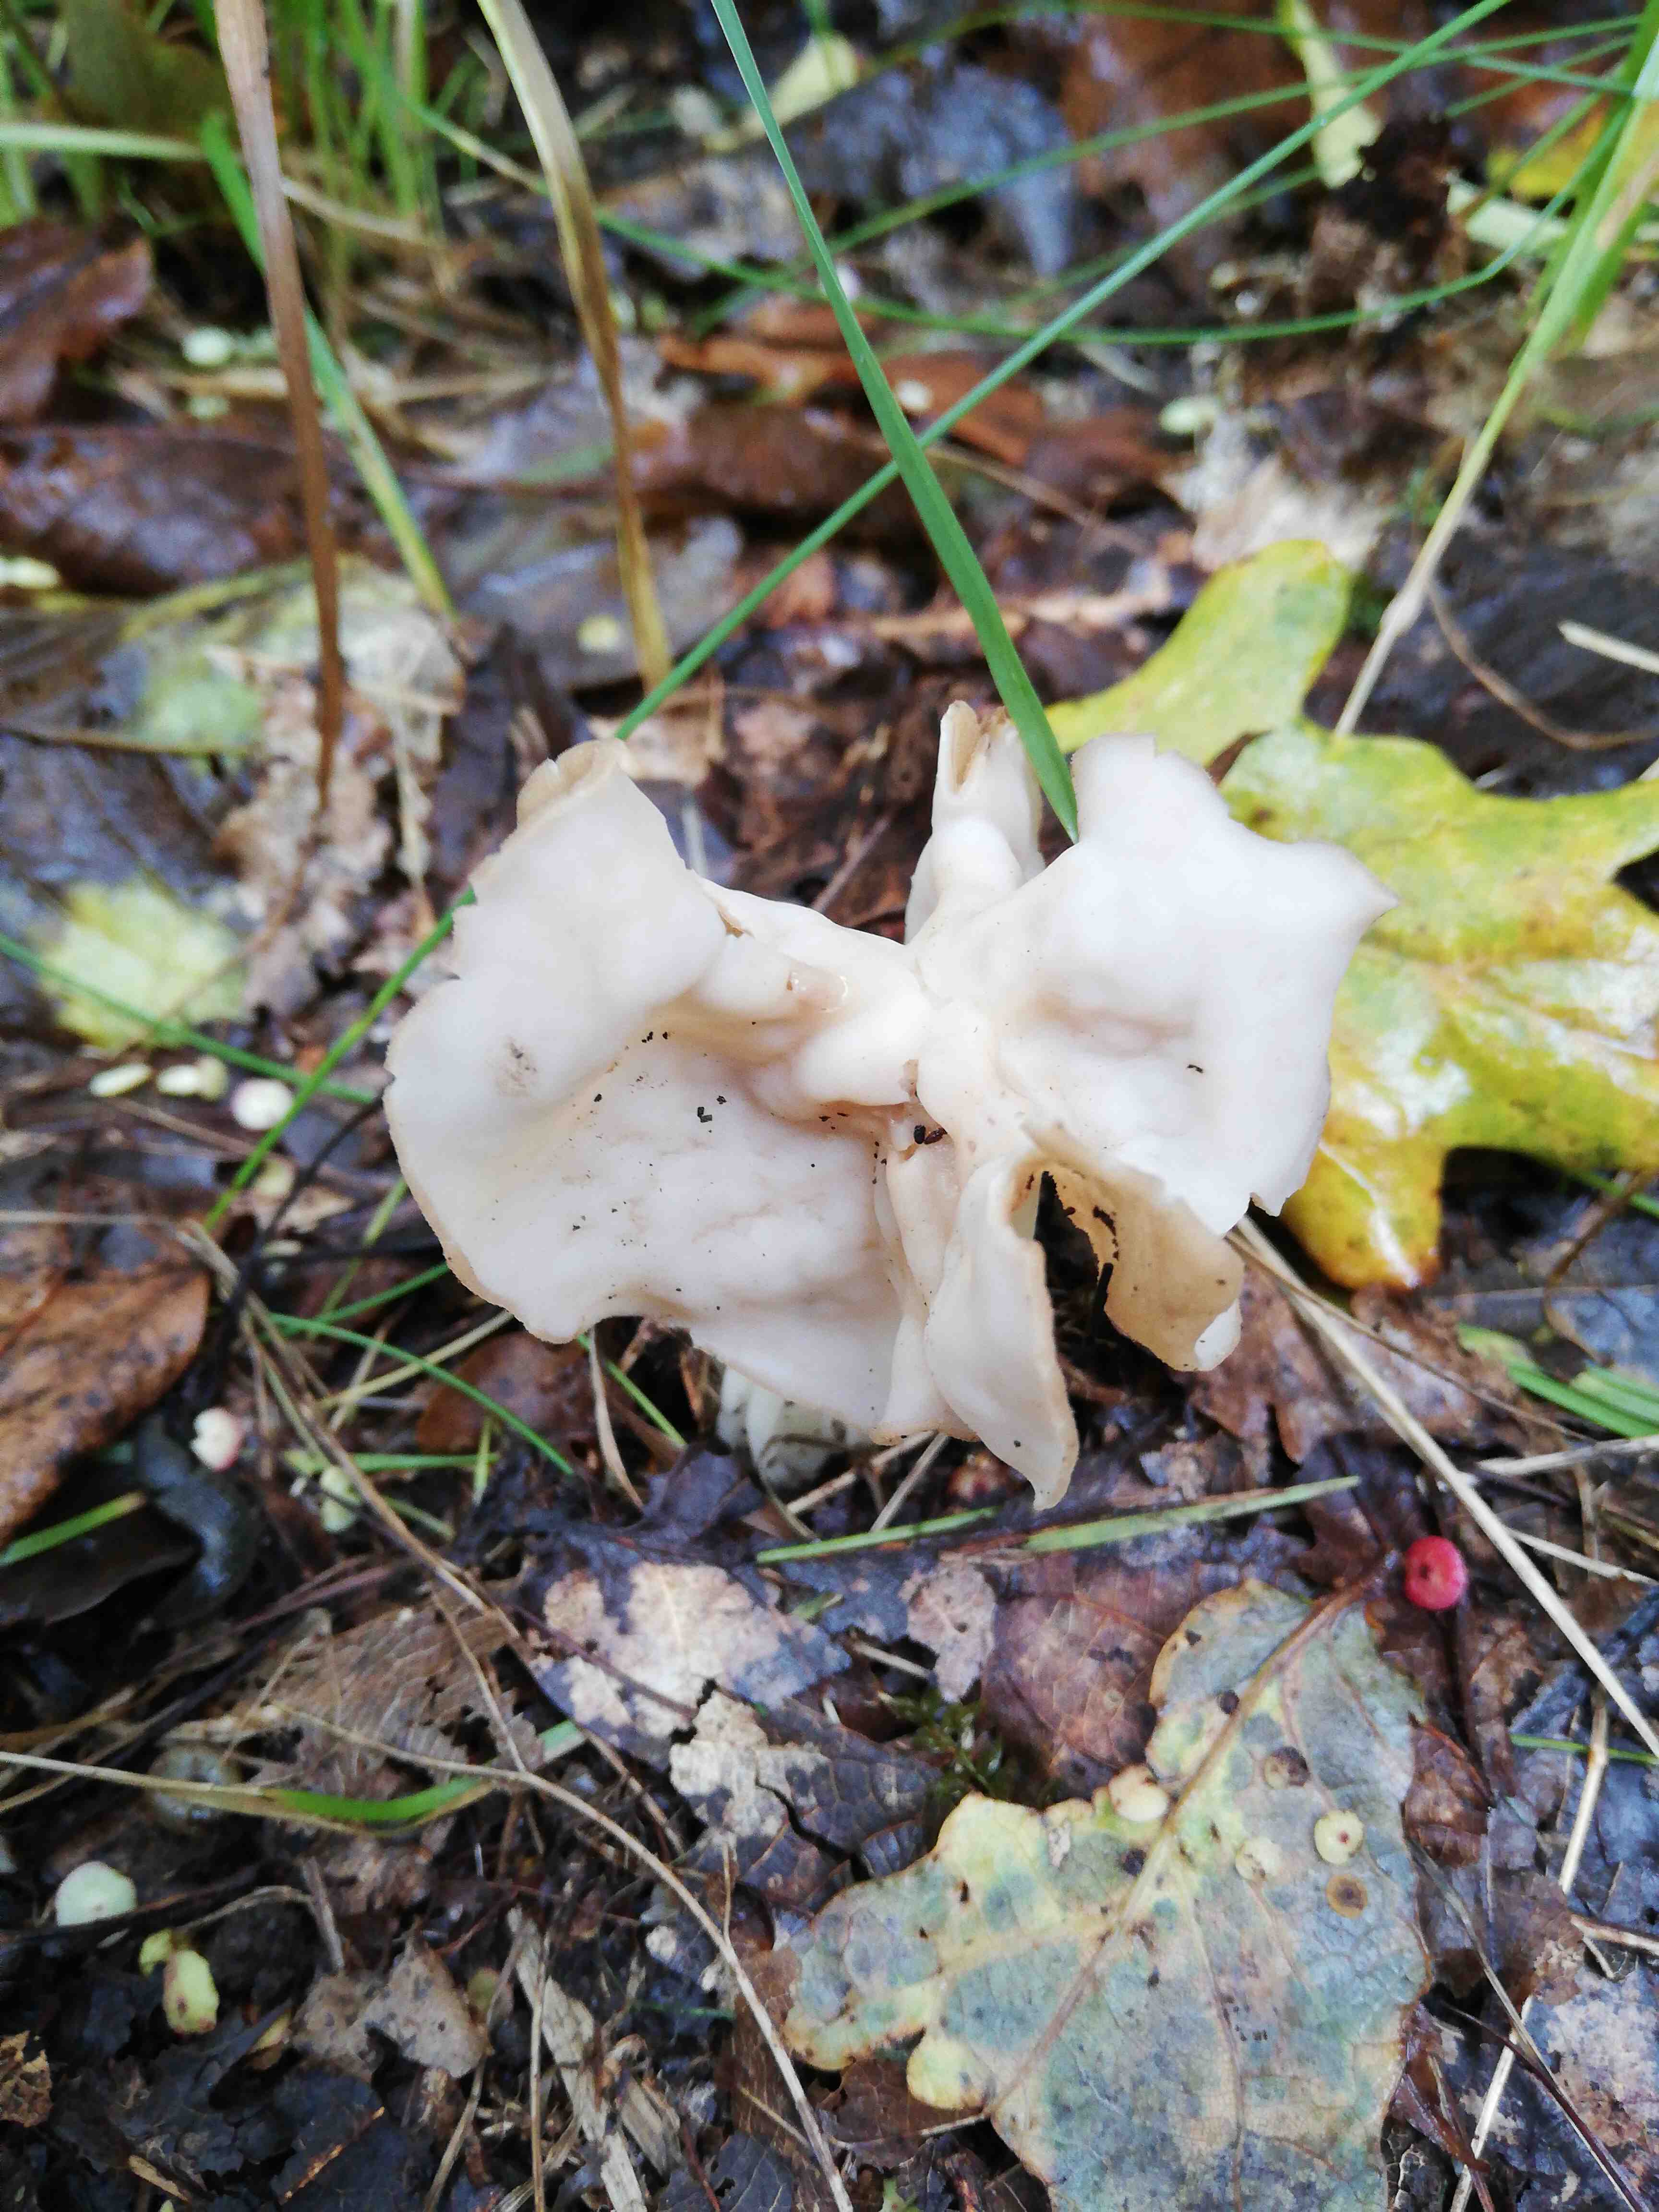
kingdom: Fungi
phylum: Ascomycota
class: Pezizomycetes
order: Pezizales
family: Helvellaceae
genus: Helvella
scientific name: Helvella crispa
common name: kruset foldhat
